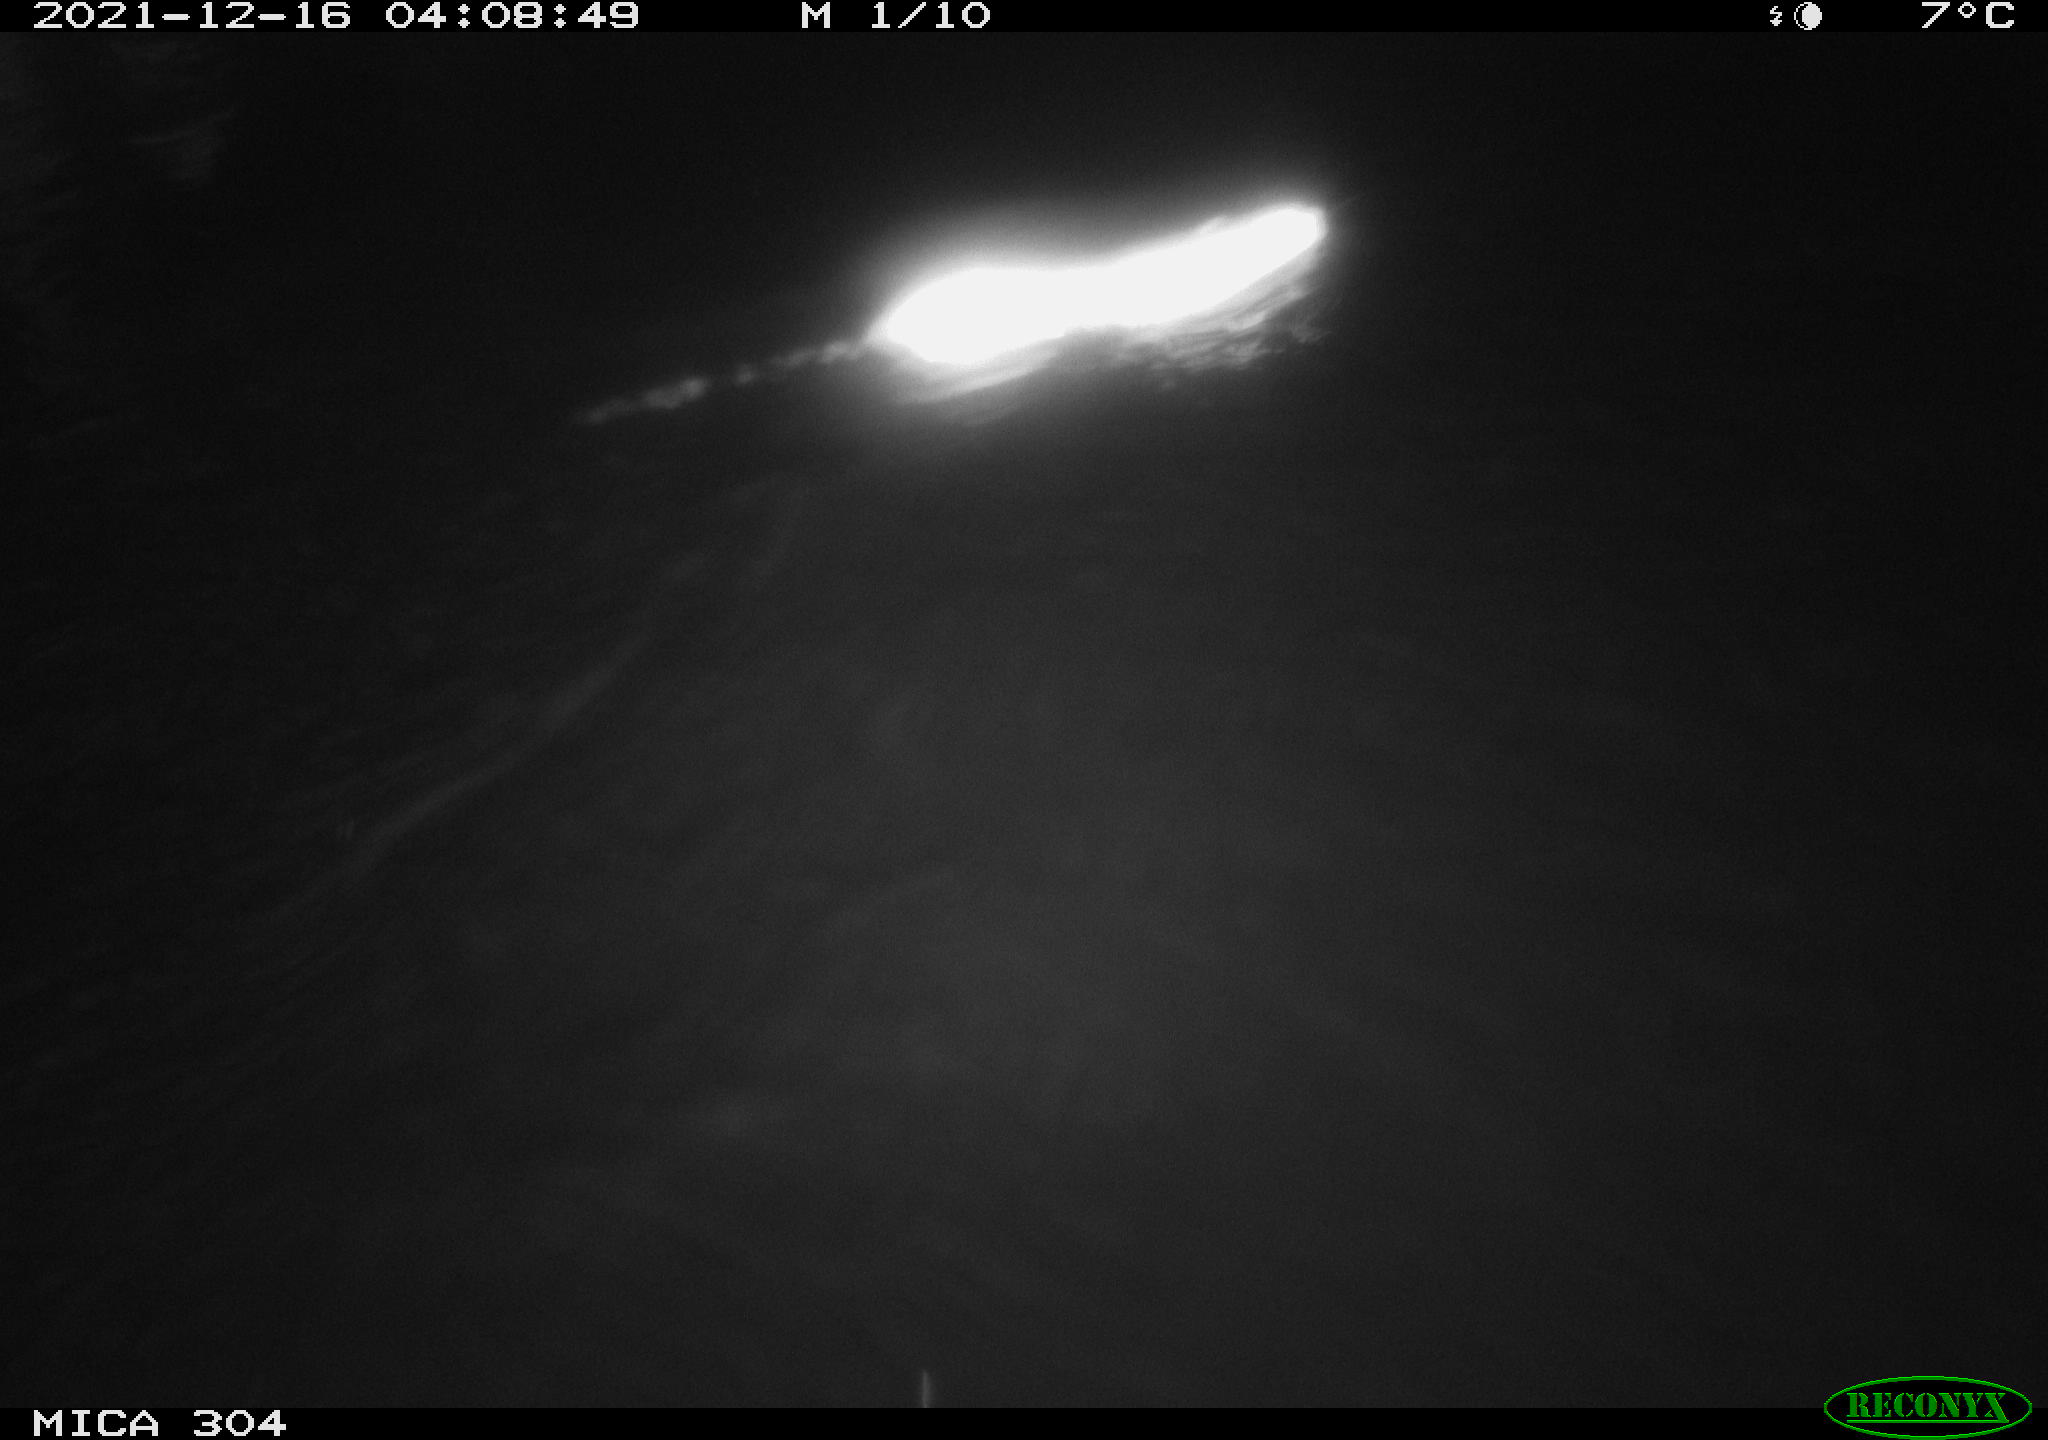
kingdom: Animalia
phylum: Chordata
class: Mammalia
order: Rodentia
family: Muridae
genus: Rattus
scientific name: Rattus norvegicus
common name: Brown rat
